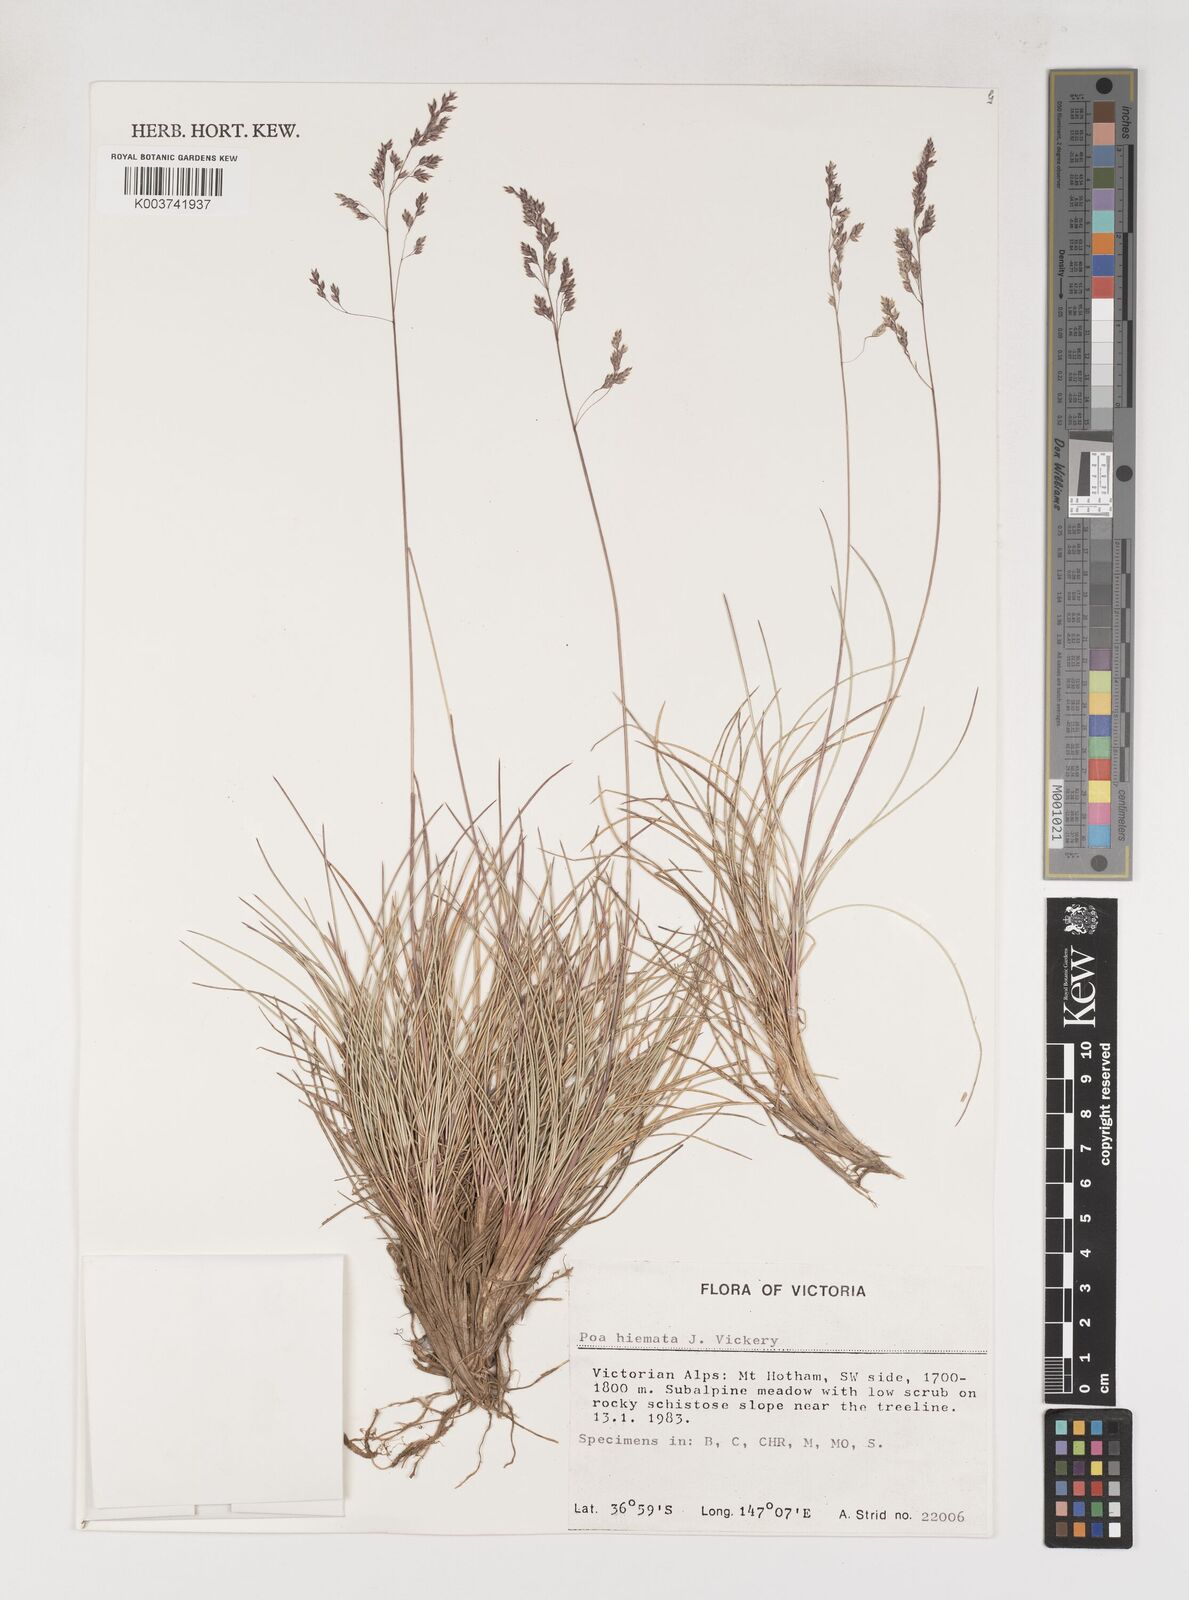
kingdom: Plantae
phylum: Tracheophyta
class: Liliopsida
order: Poales
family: Poaceae
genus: Poa
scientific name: Poa hiemata
